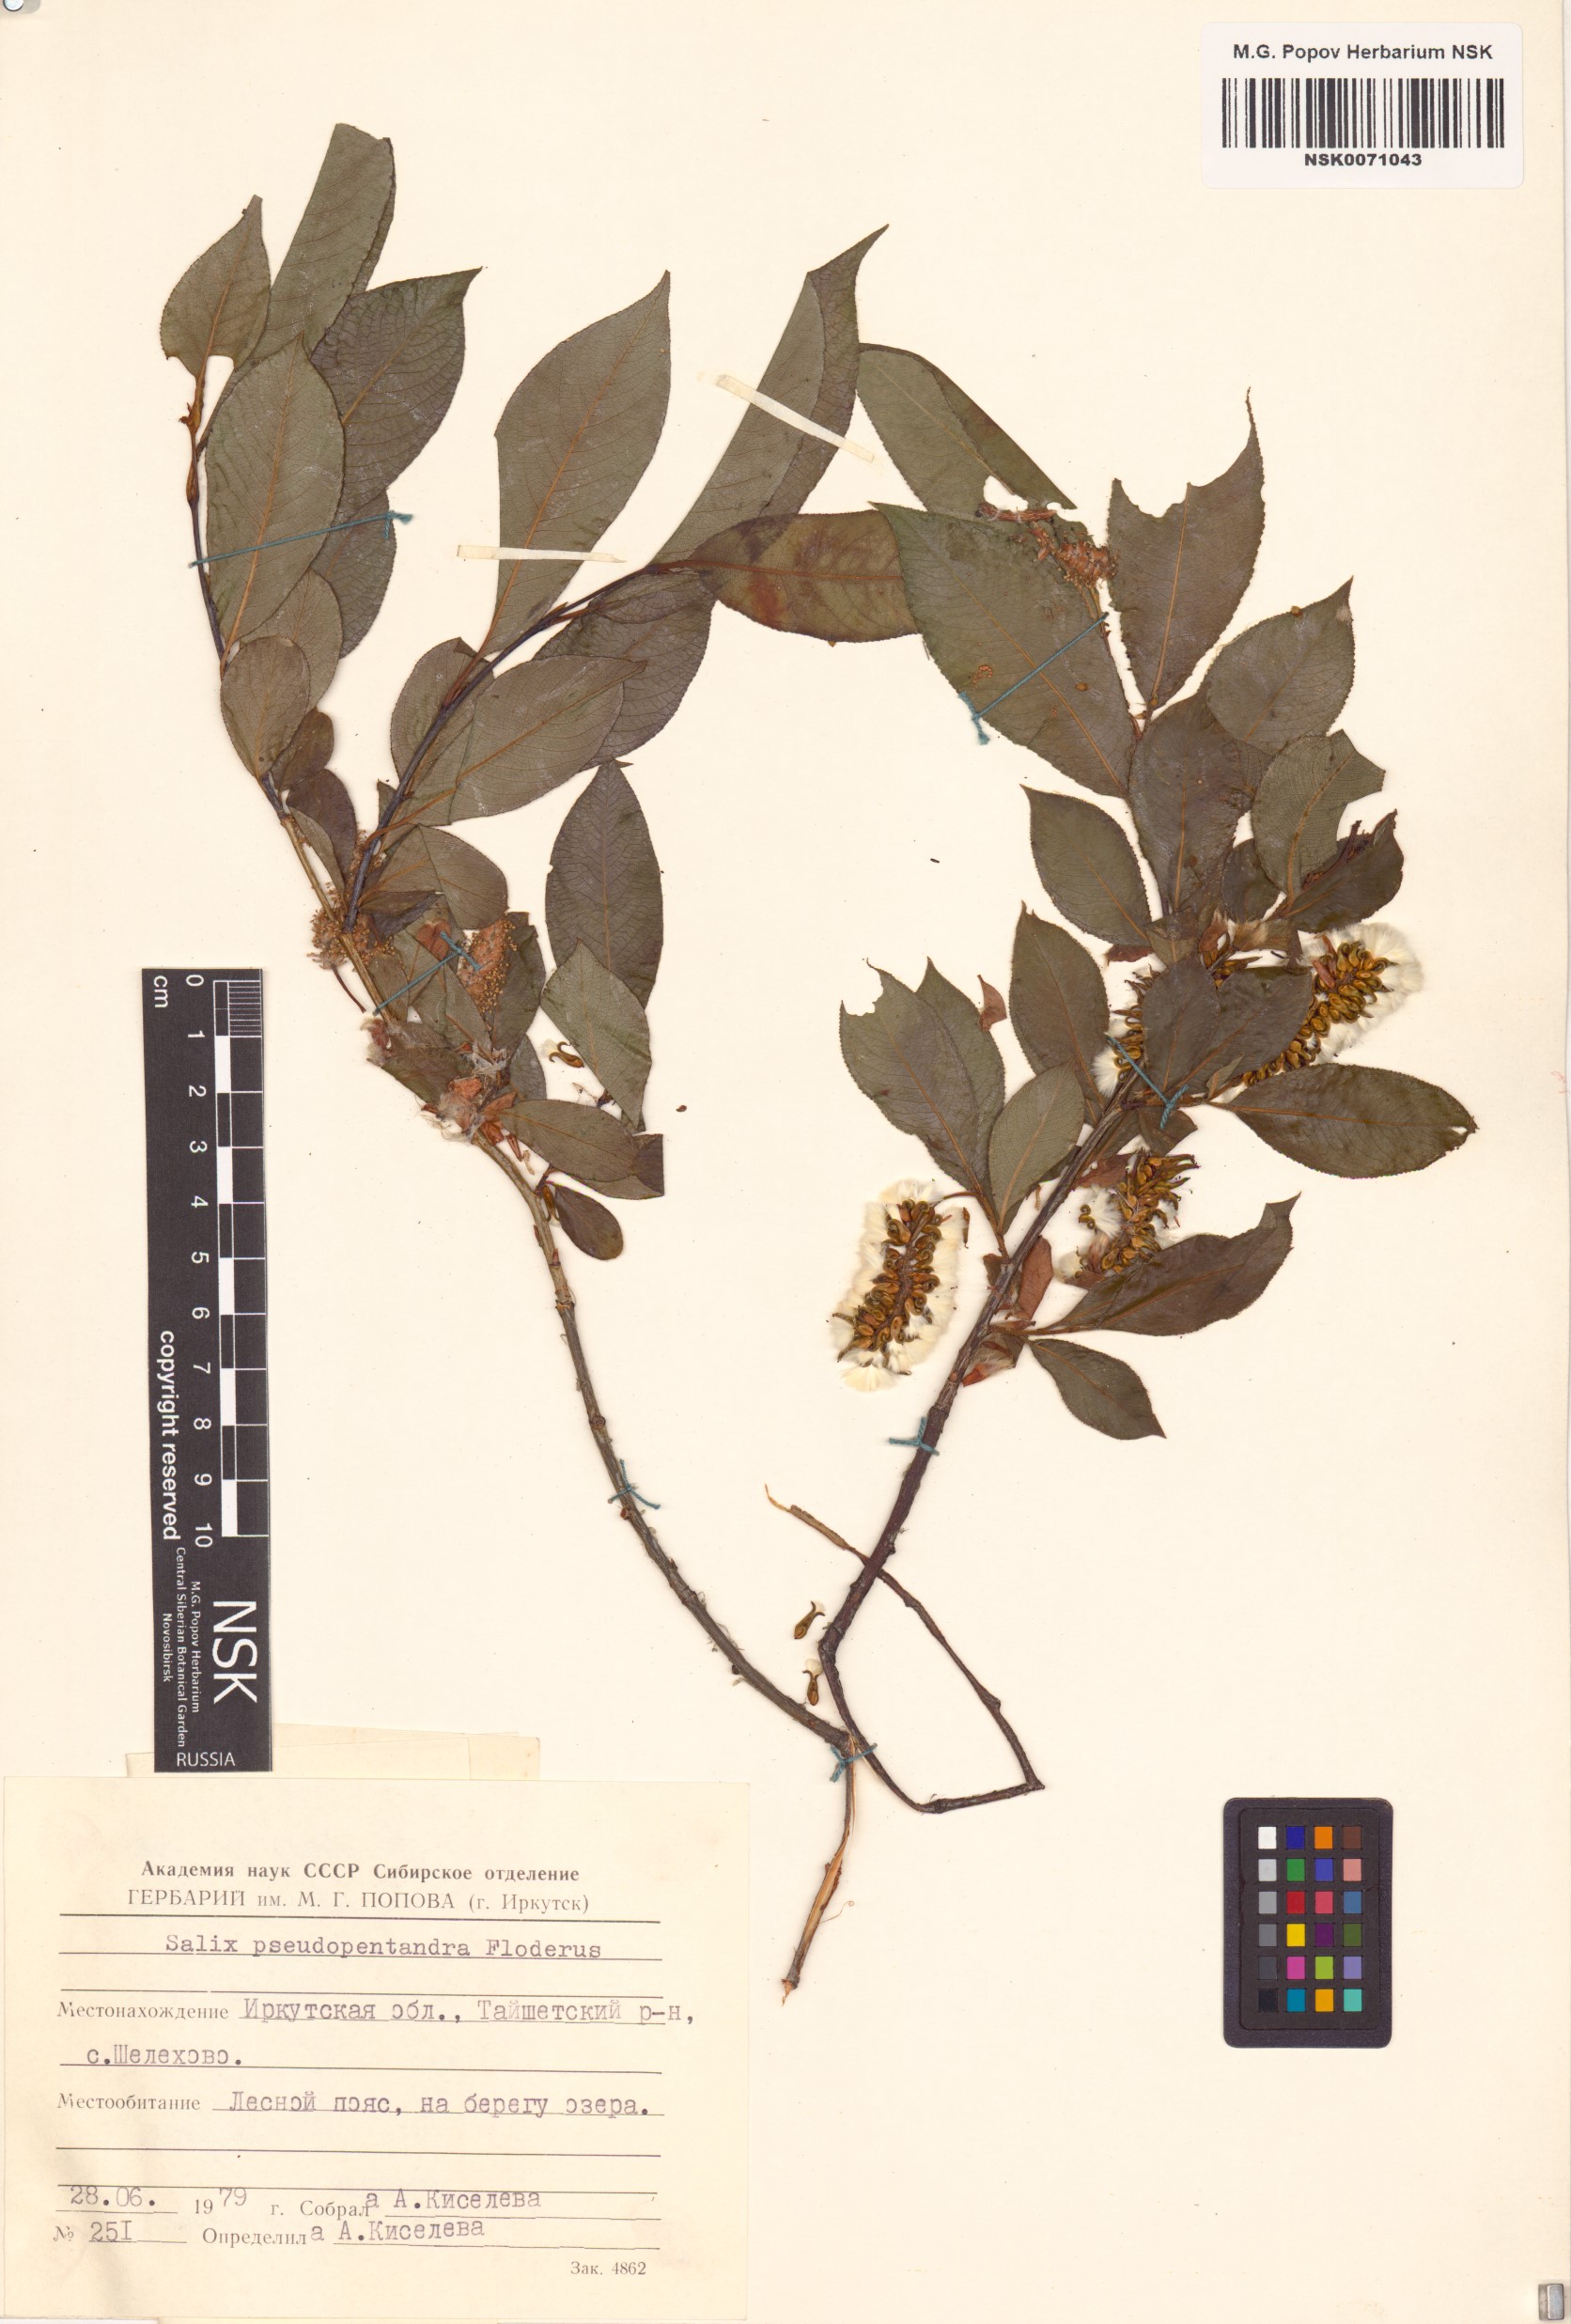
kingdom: Plantae
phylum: Tracheophyta
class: Magnoliopsida
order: Malpighiales
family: Salicaceae
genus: Salix
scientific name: Salix pseudopentandra
